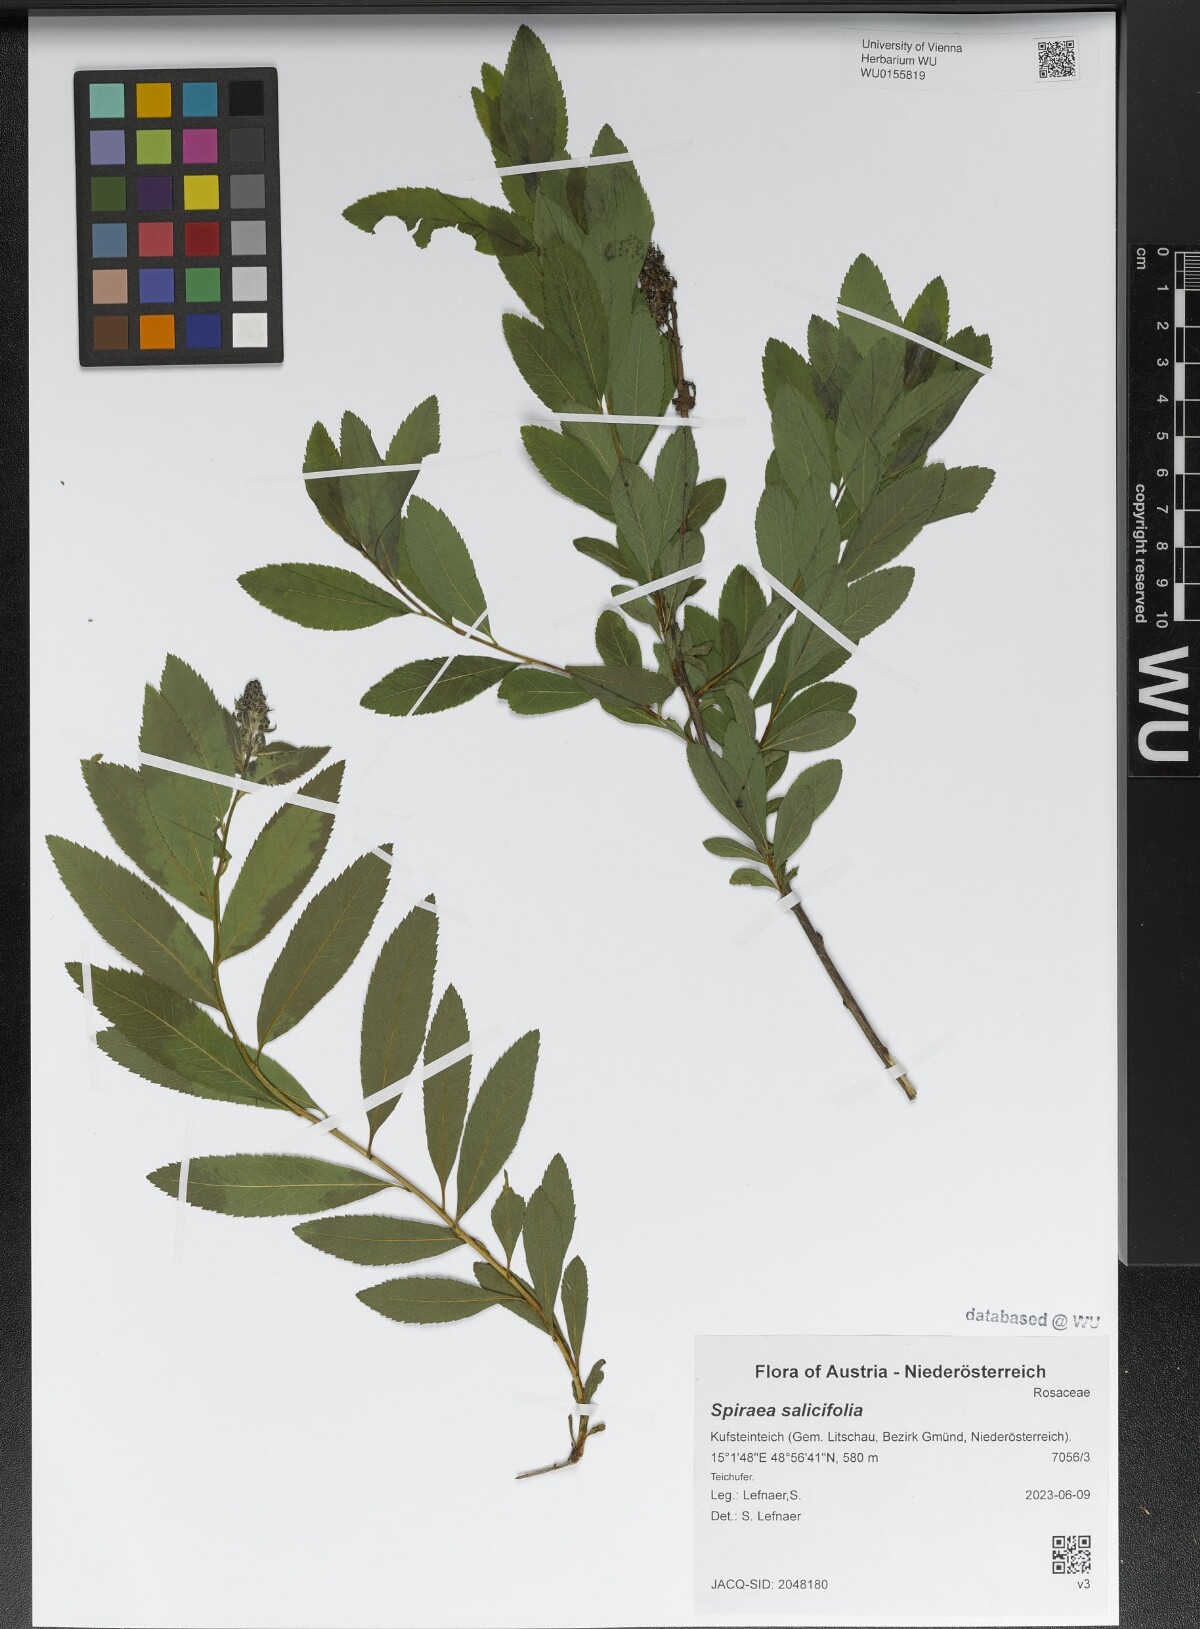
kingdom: Plantae
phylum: Tracheophyta
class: Magnoliopsida
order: Rosales
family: Rosaceae
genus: Spiraea
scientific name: Spiraea salicifolia
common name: Bridewort
